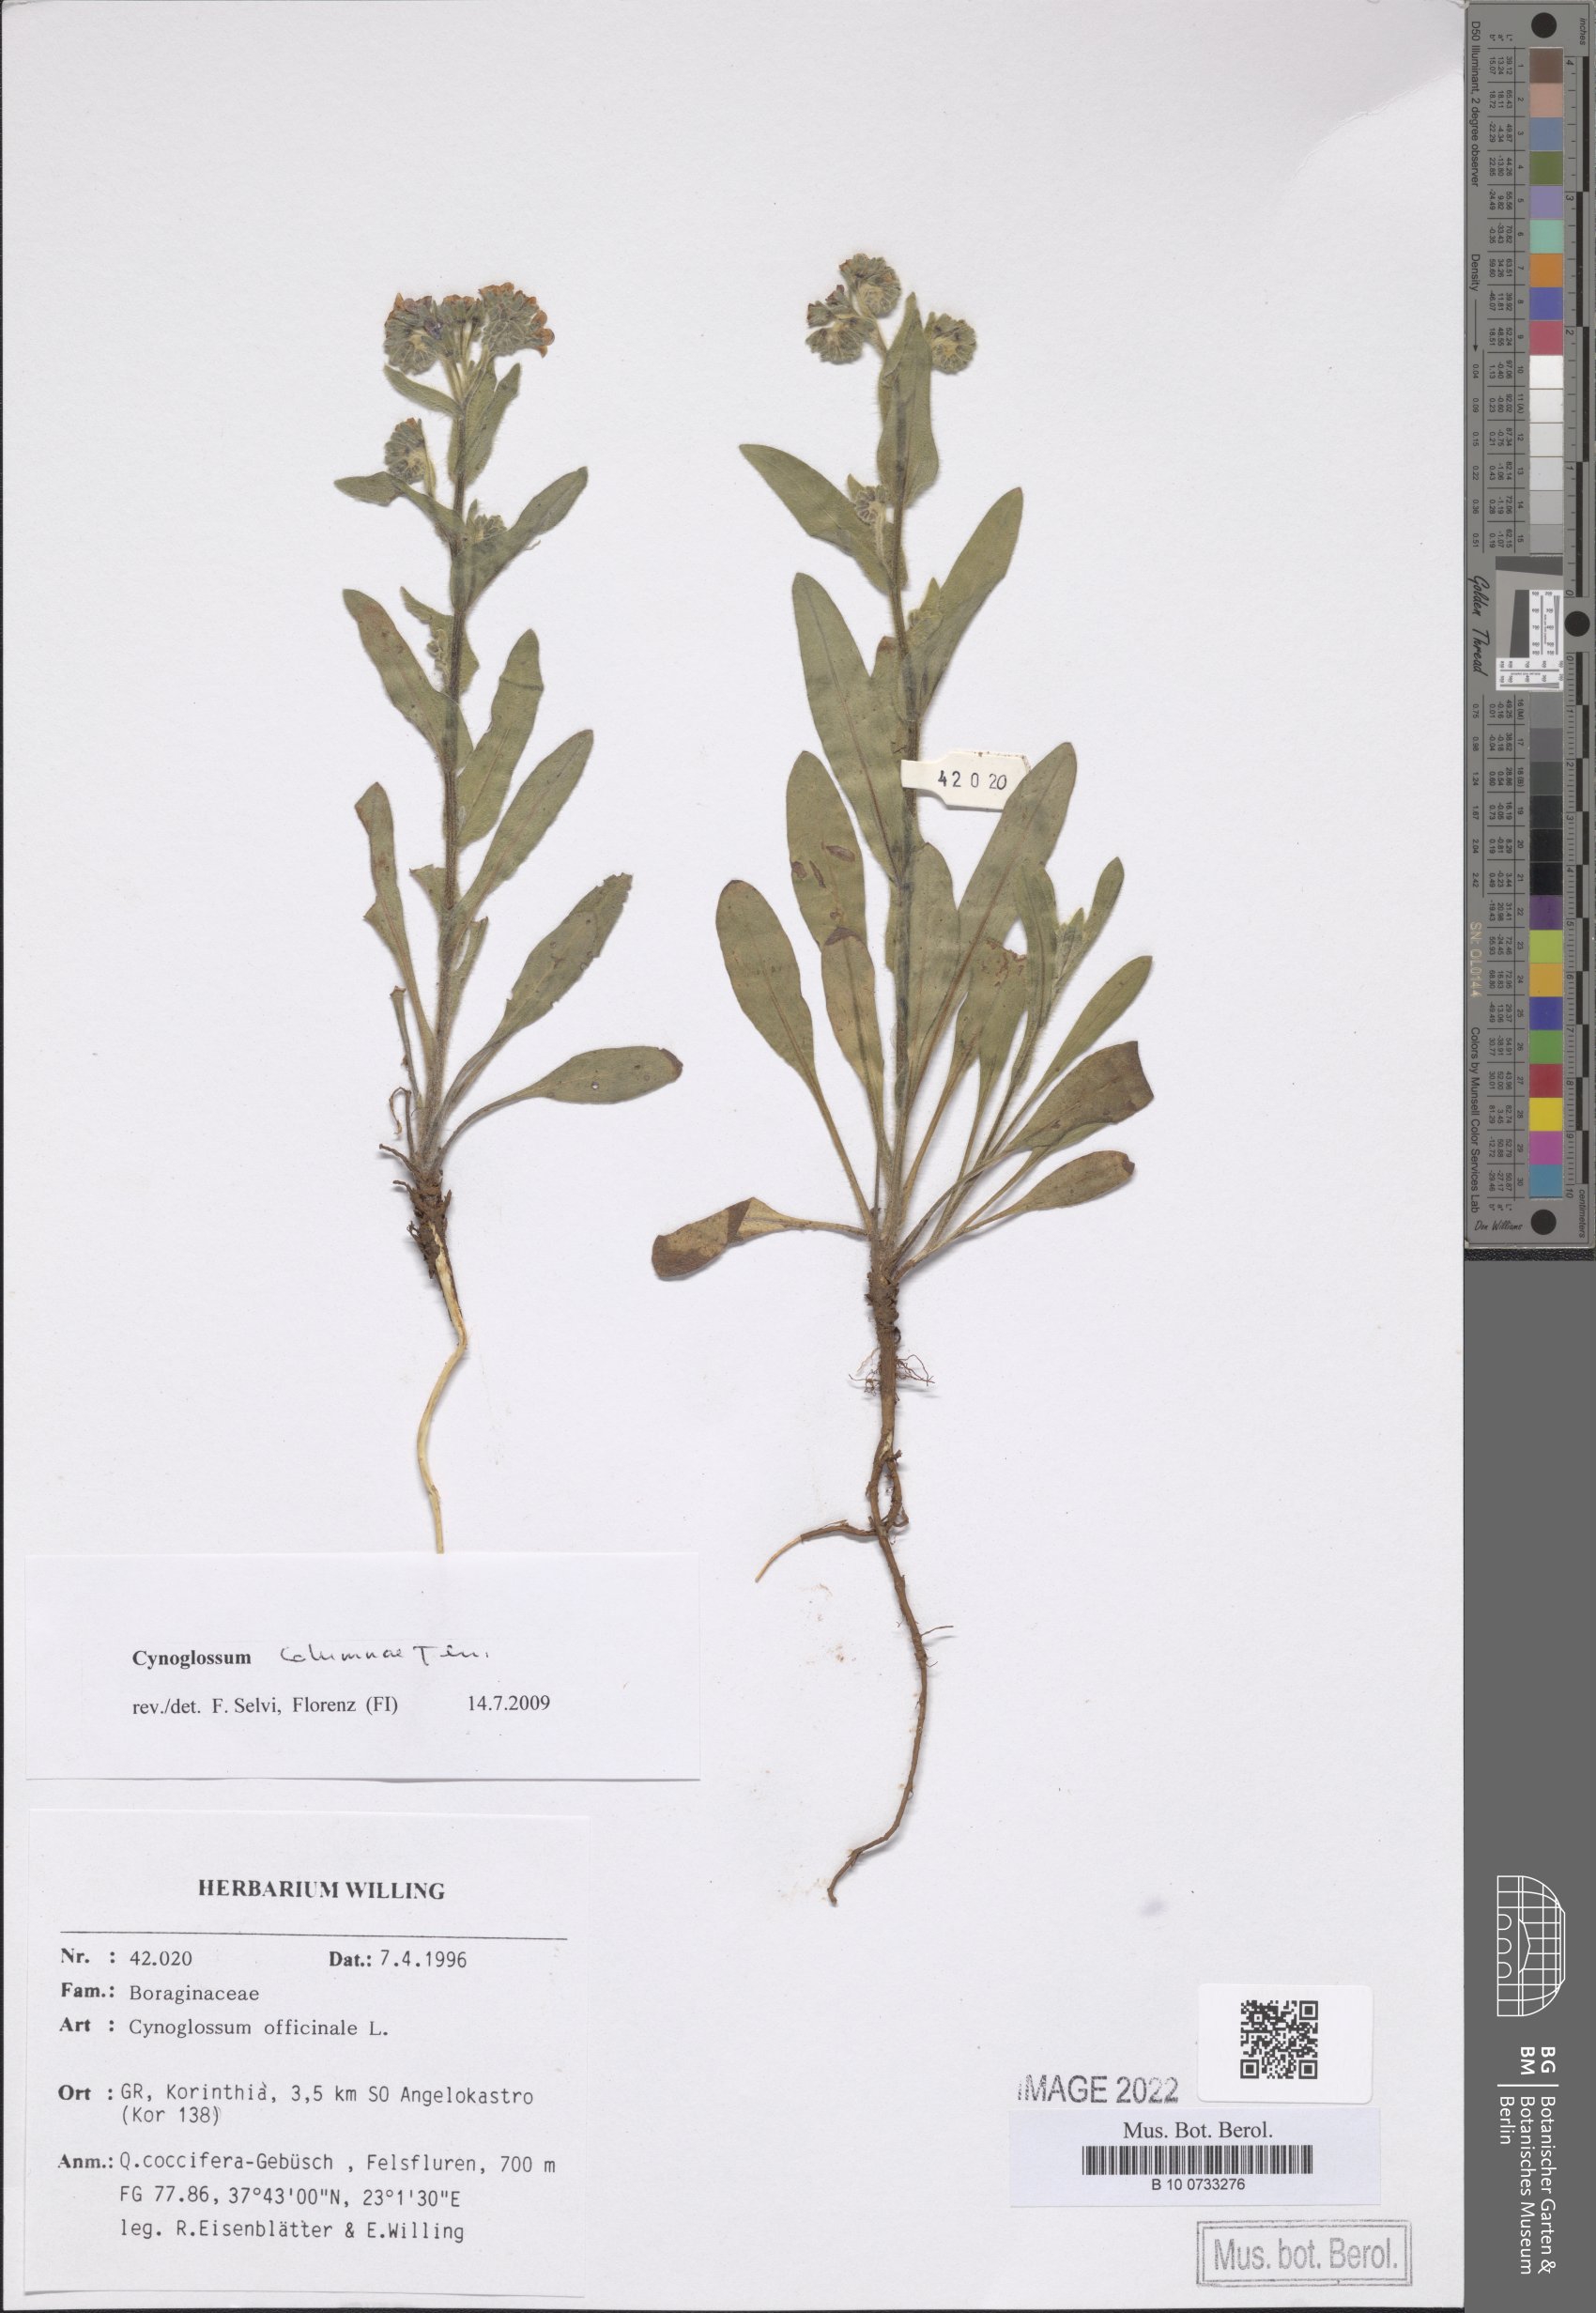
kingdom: Plantae
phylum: Tracheophyta
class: Magnoliopsida
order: Boraginales
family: Boraginaceae
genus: Rindera
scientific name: Rindera columnae
